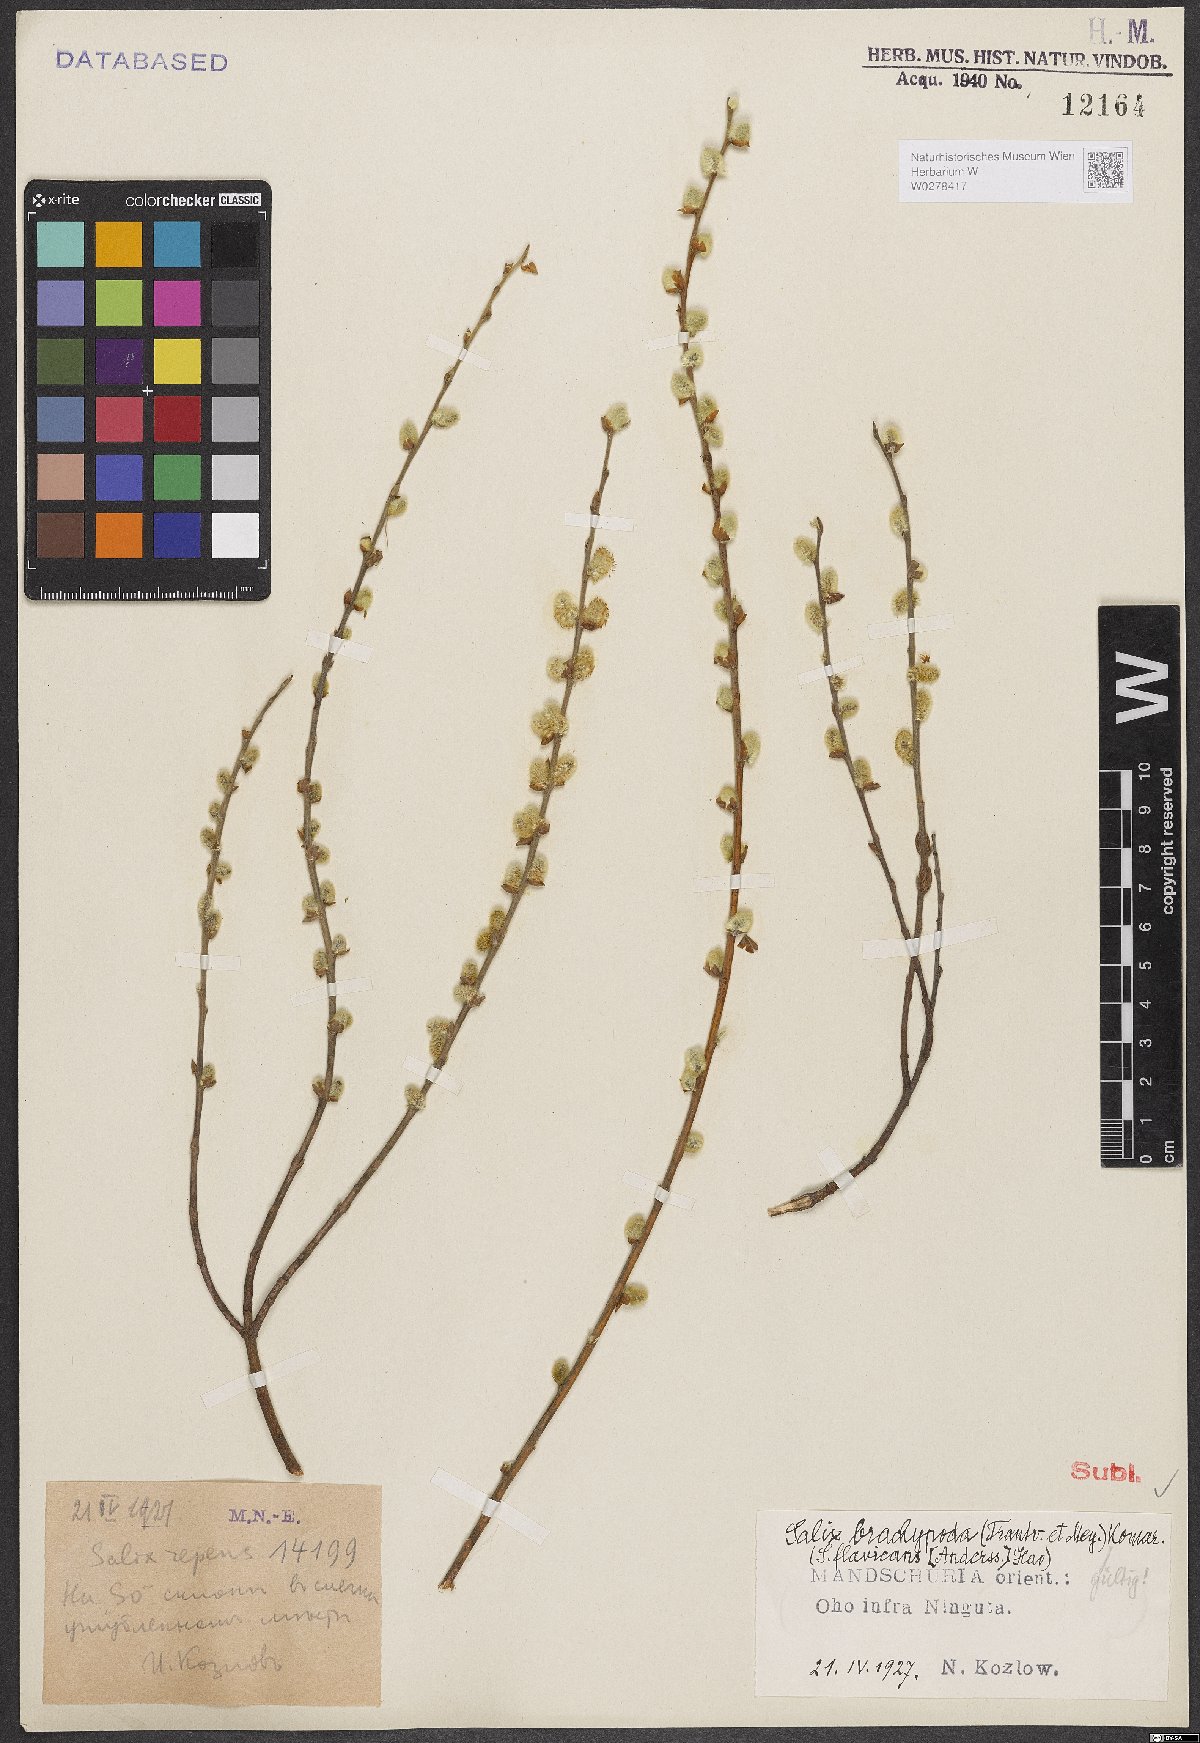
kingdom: Plantae
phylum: Tracheophyta
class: Magnoliopsida
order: Malpighiales
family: Salicaceae
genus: Salix
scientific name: Salix brachypoda
